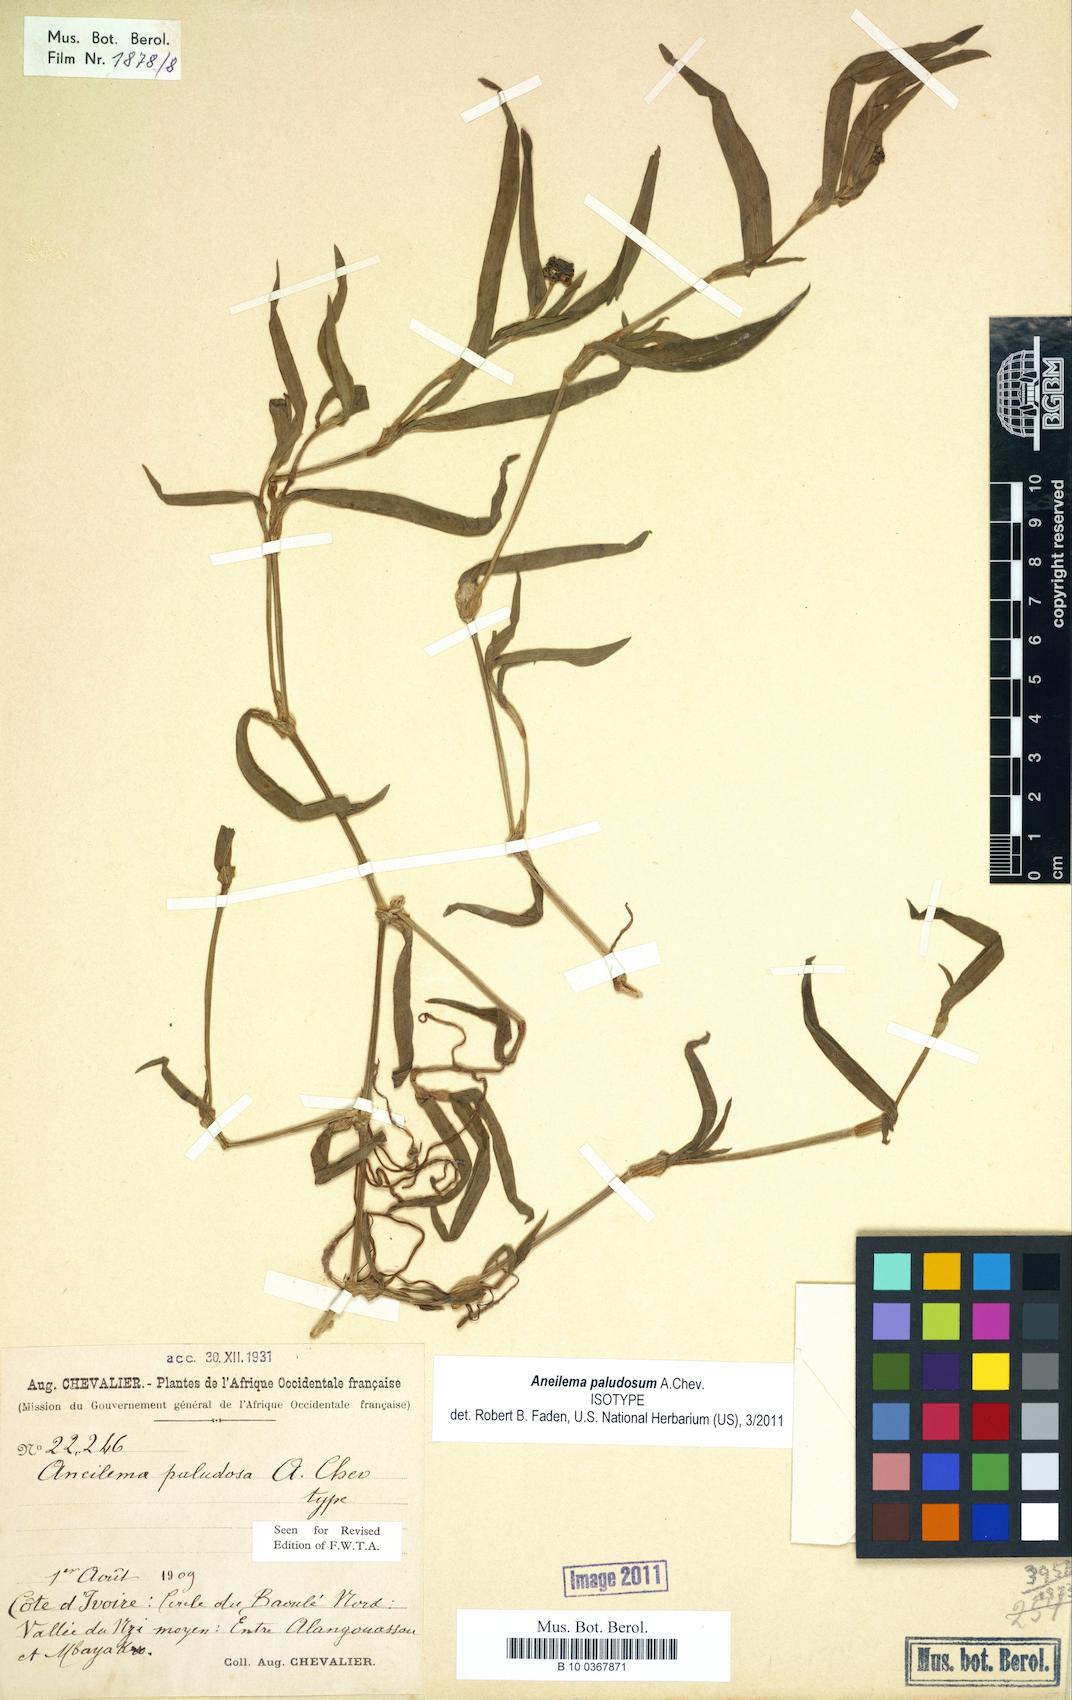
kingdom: Plantae
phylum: Tracheophyta
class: Liliopsida
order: Commelinales
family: Commelinaceae
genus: Aneilema
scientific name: Aneilema paludosum
